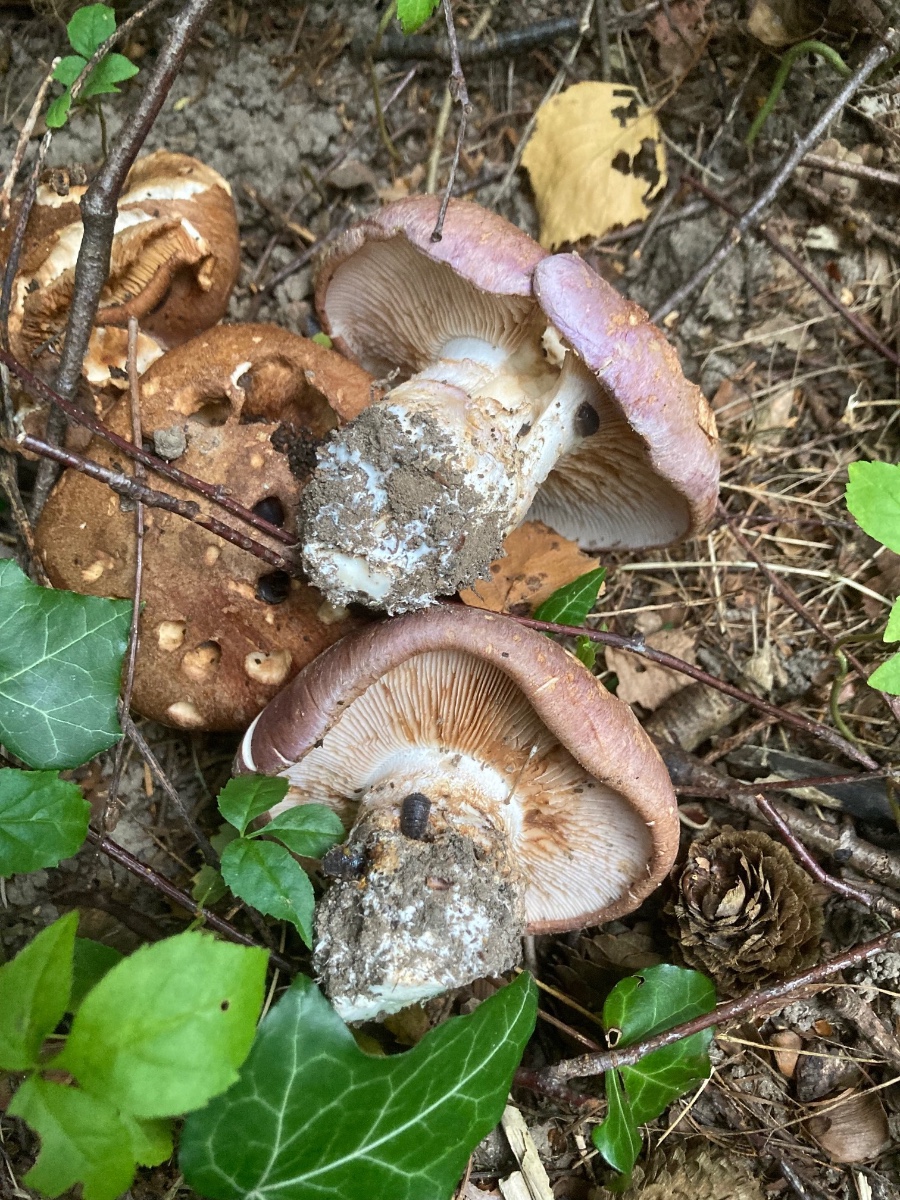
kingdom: Fungi
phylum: Basidiomycota
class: Agaricomycetes
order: Agaricales
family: Cortinariaceae
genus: Phlegmacium
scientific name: Phlegmacium balteatocumatile
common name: violettrådet slørhat
